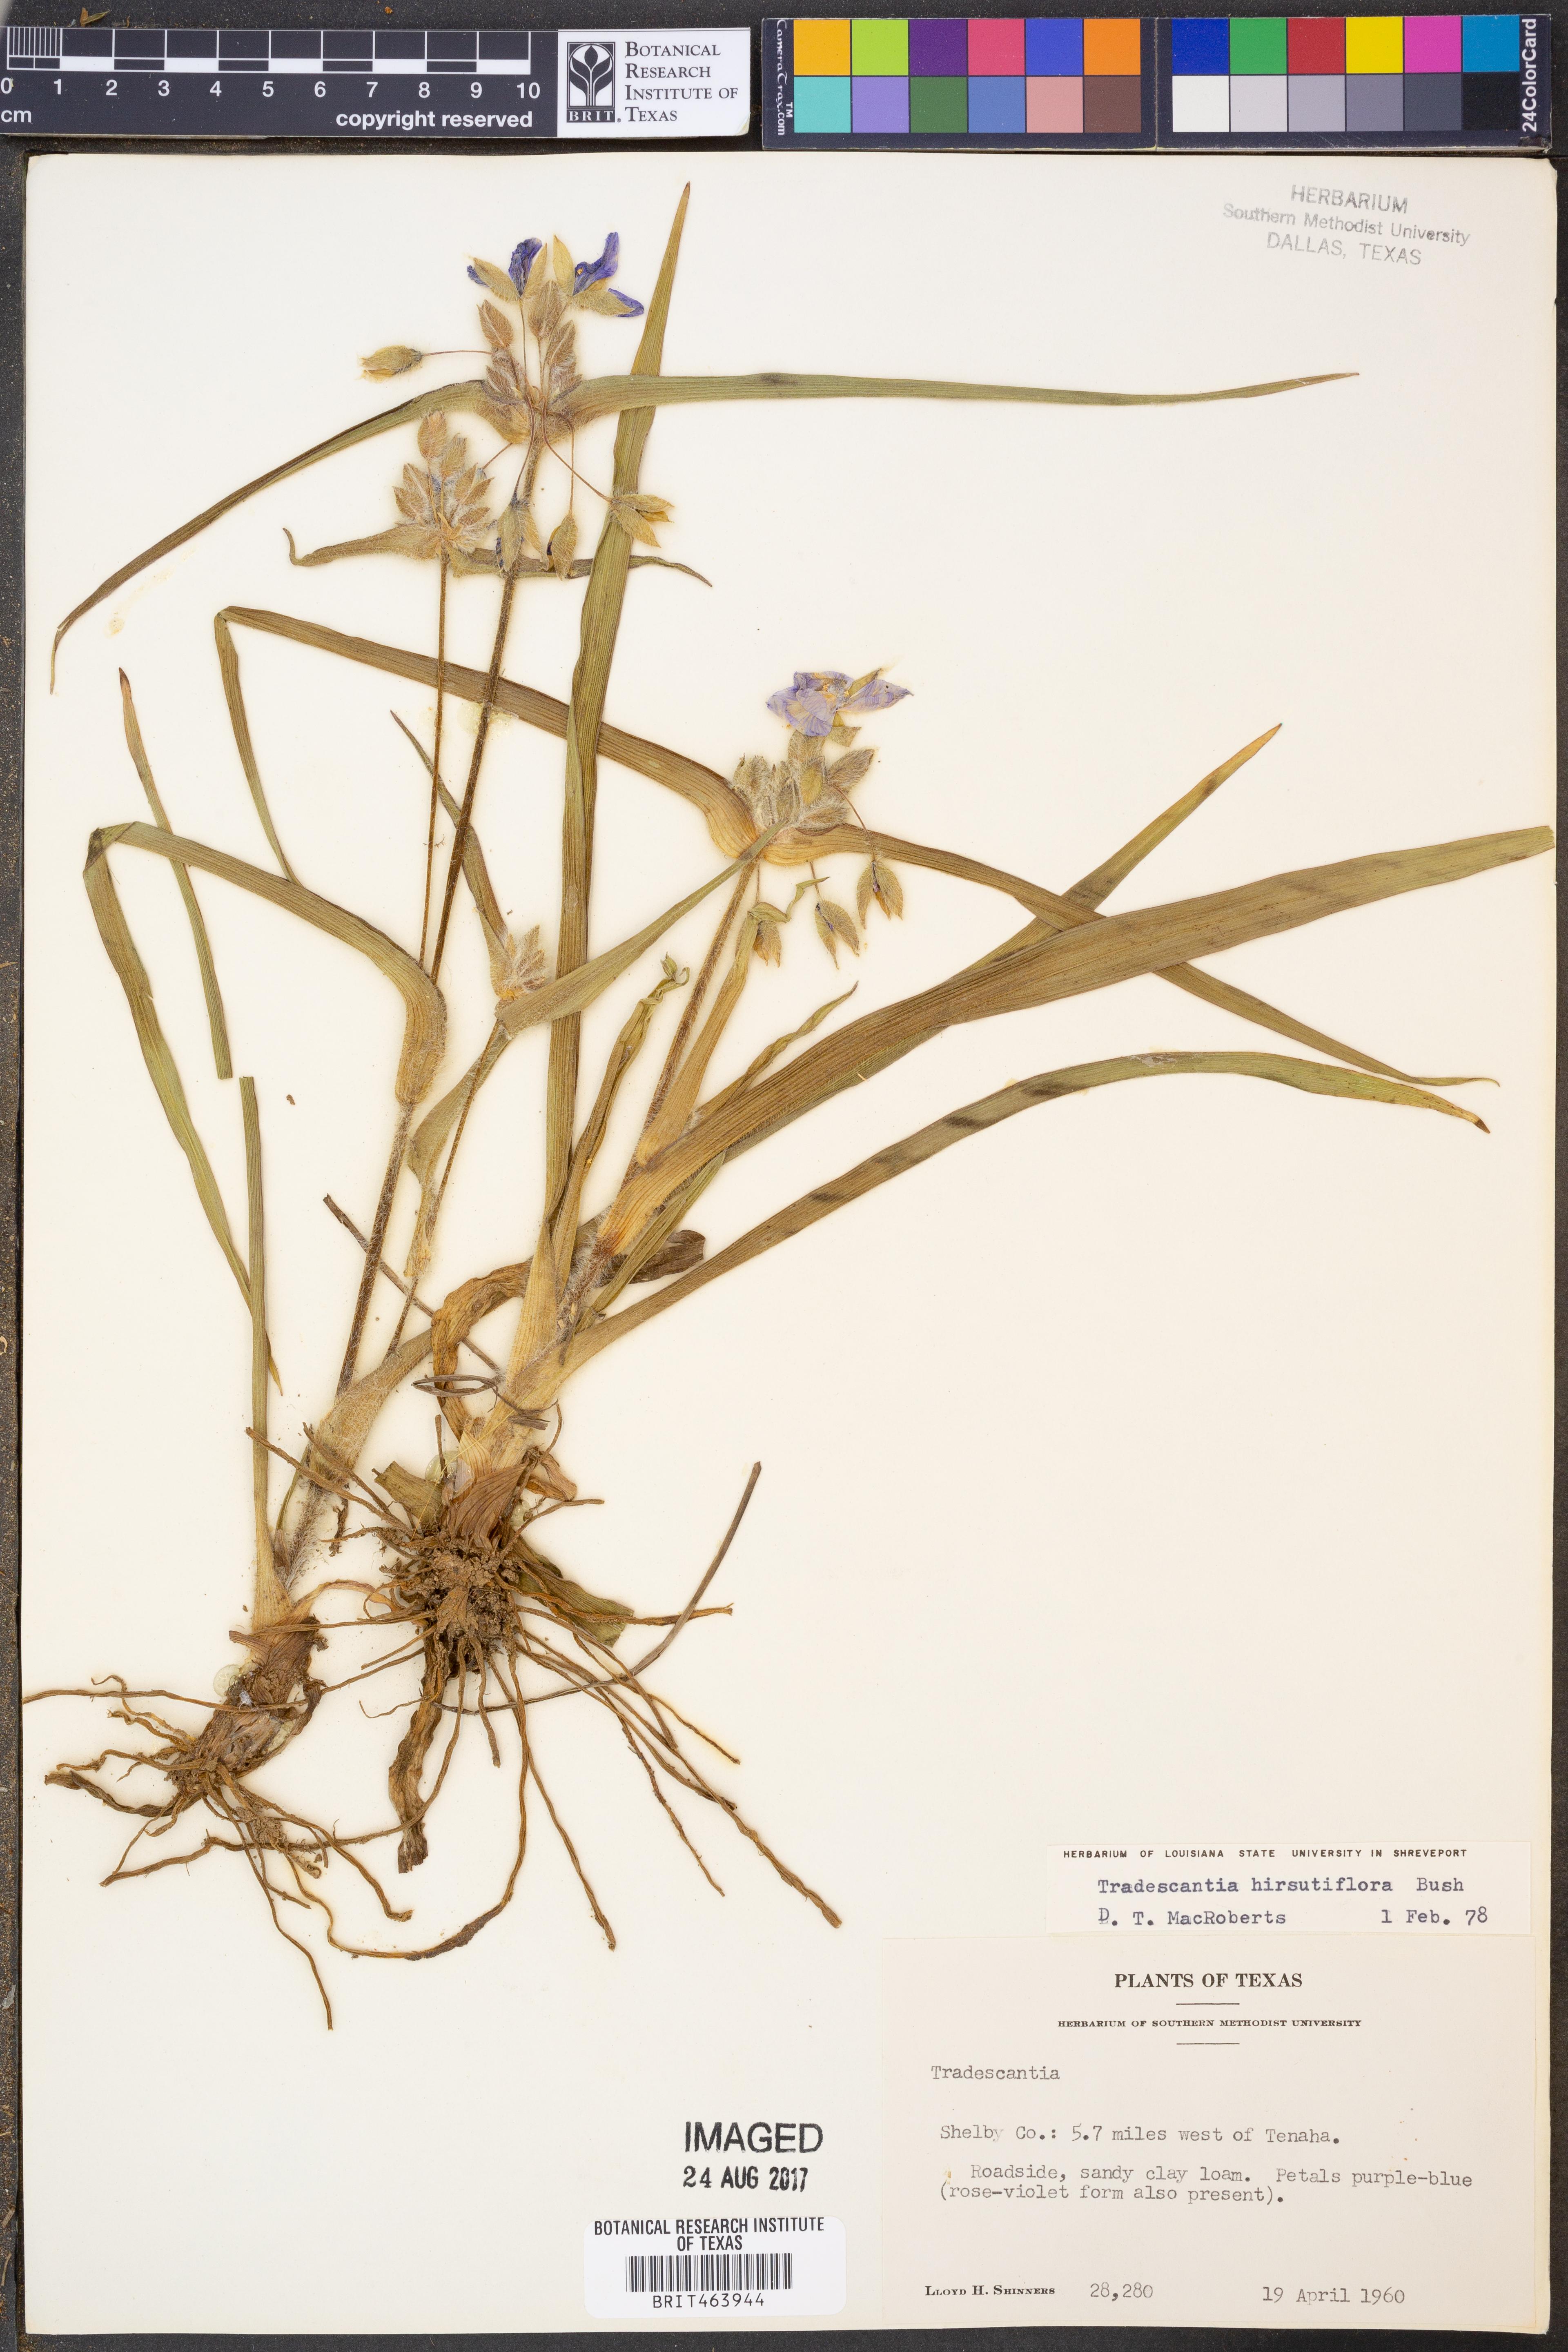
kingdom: Plantae
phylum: Tracheophyta
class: Liliopsida
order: Commelinales
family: Commelinaceae
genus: Tradescantia
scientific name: Tradescantia hirsutiflora
